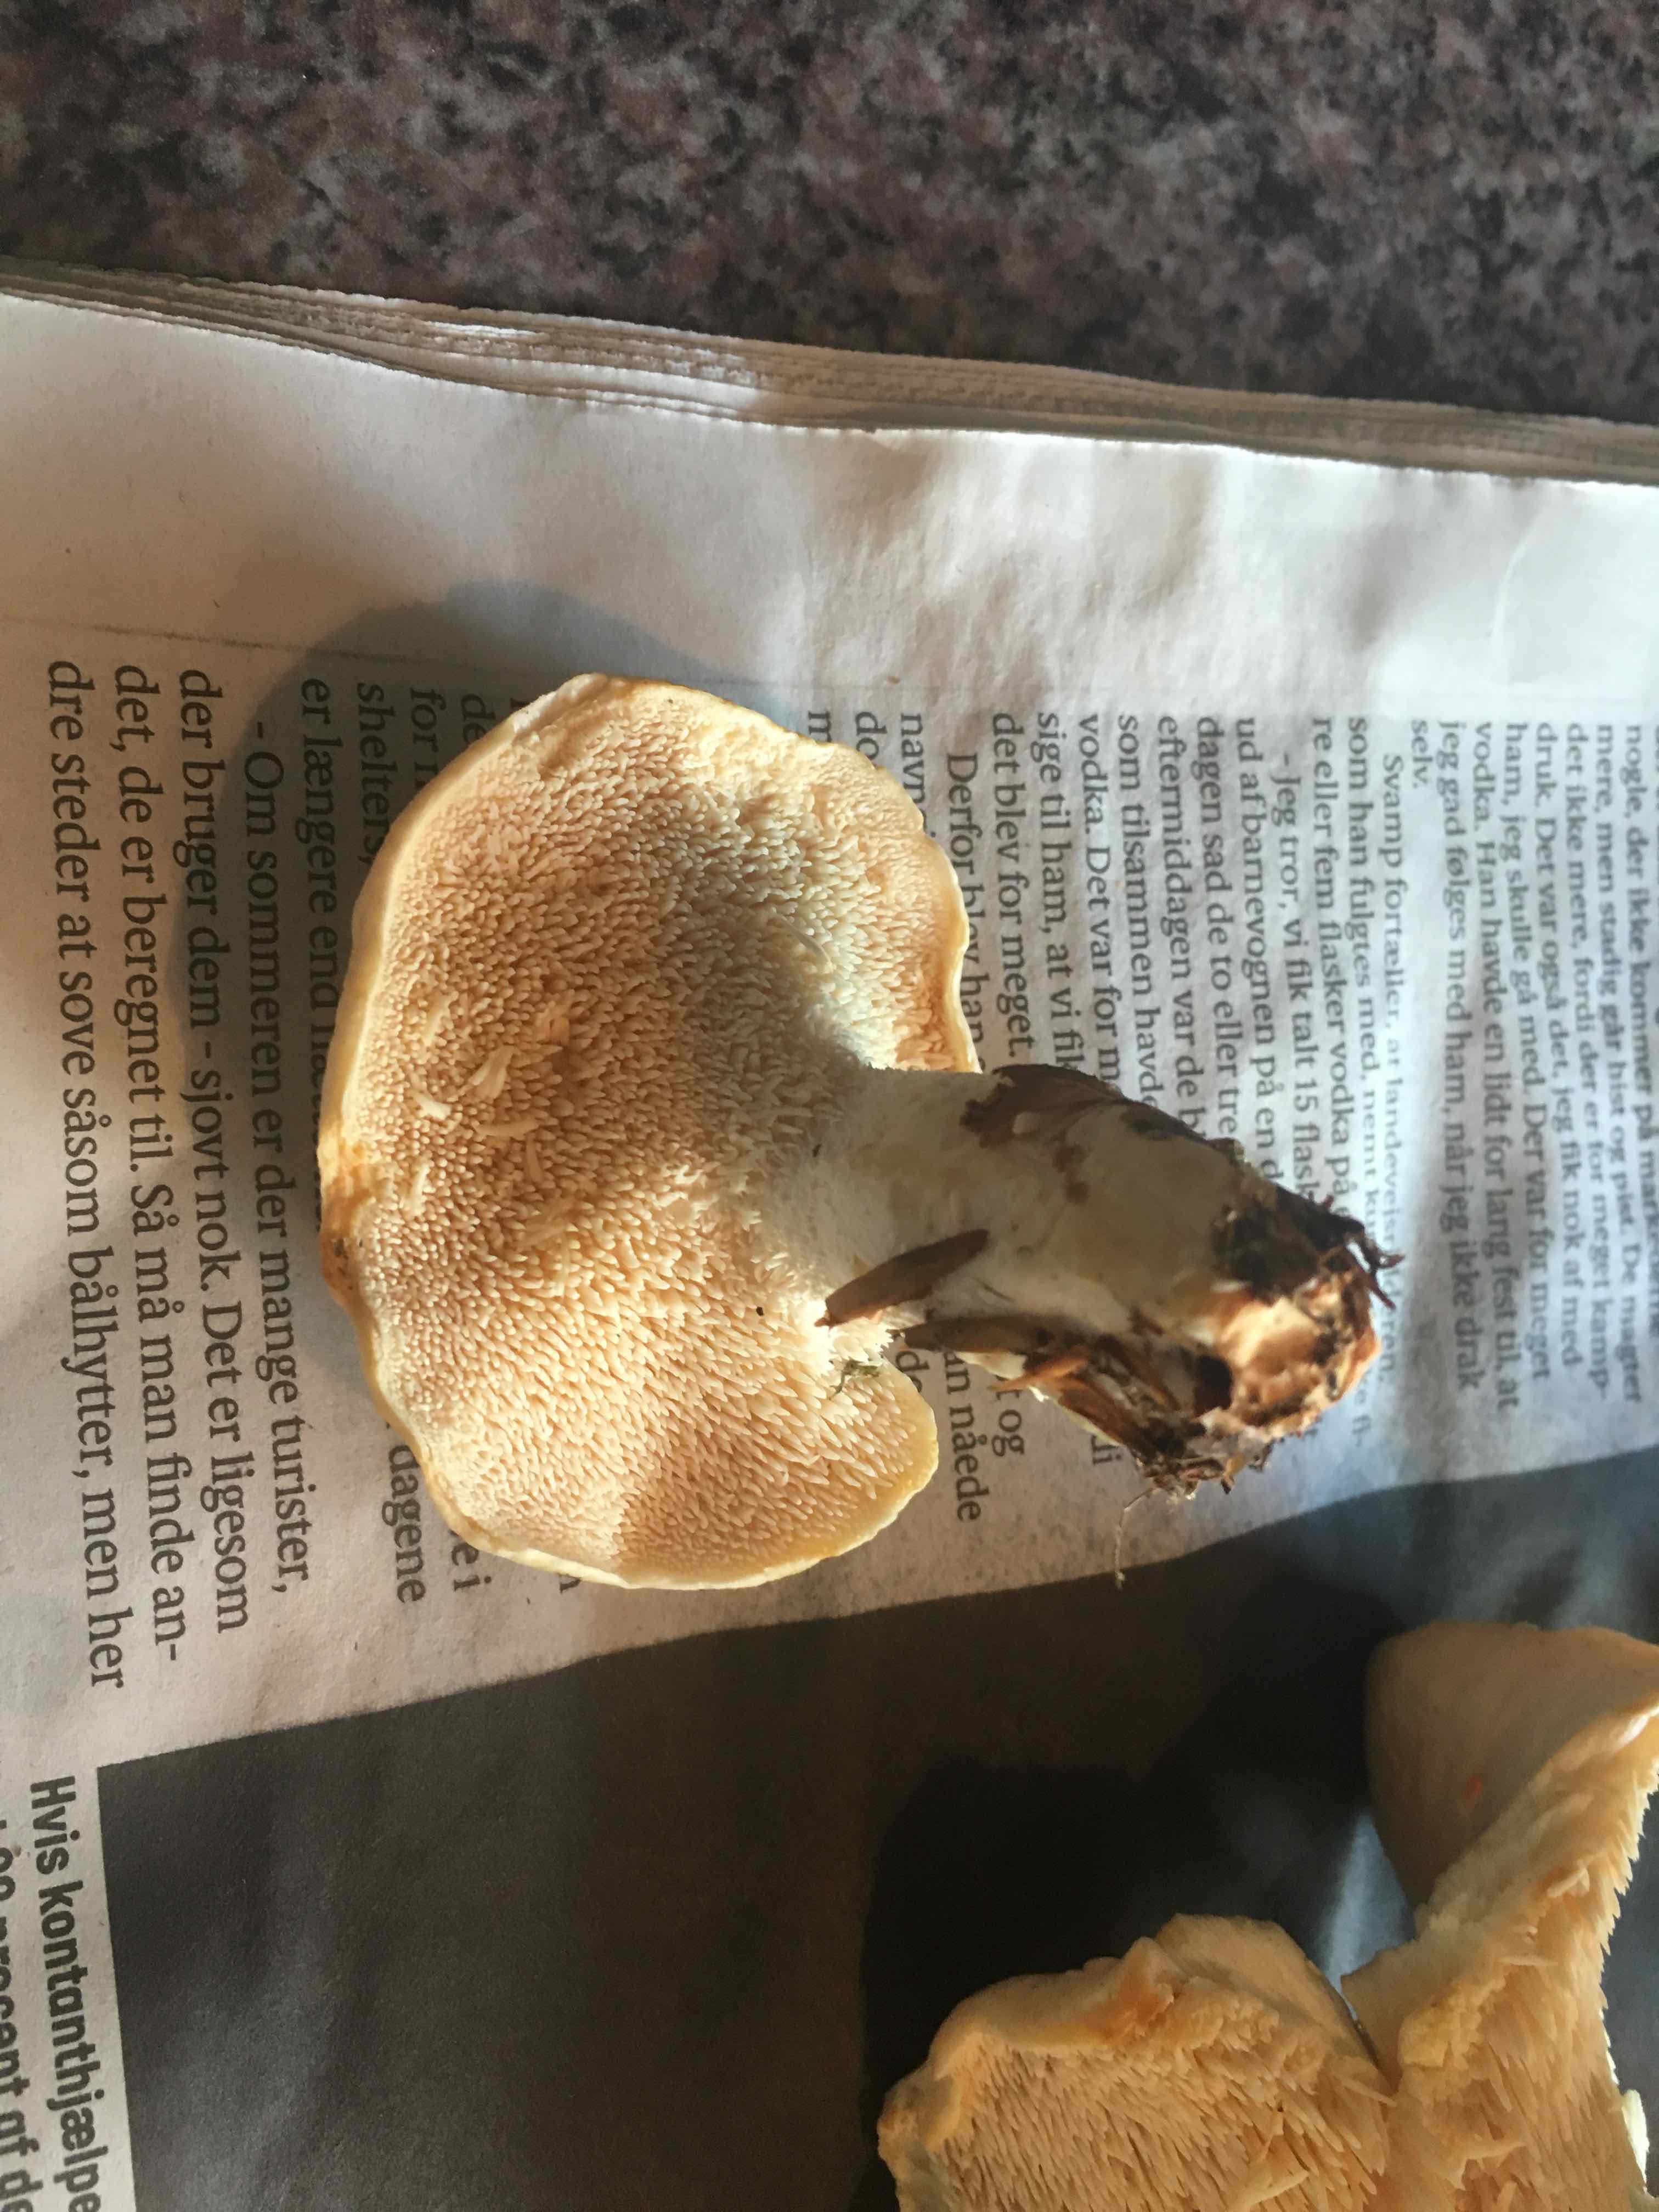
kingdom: Fungi
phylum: Basidiomycota
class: Agaricomycetes
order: Cantharellales
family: Hydnaceae
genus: Hydnum
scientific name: Hydnum repandum
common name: almindelig pigsvamp
